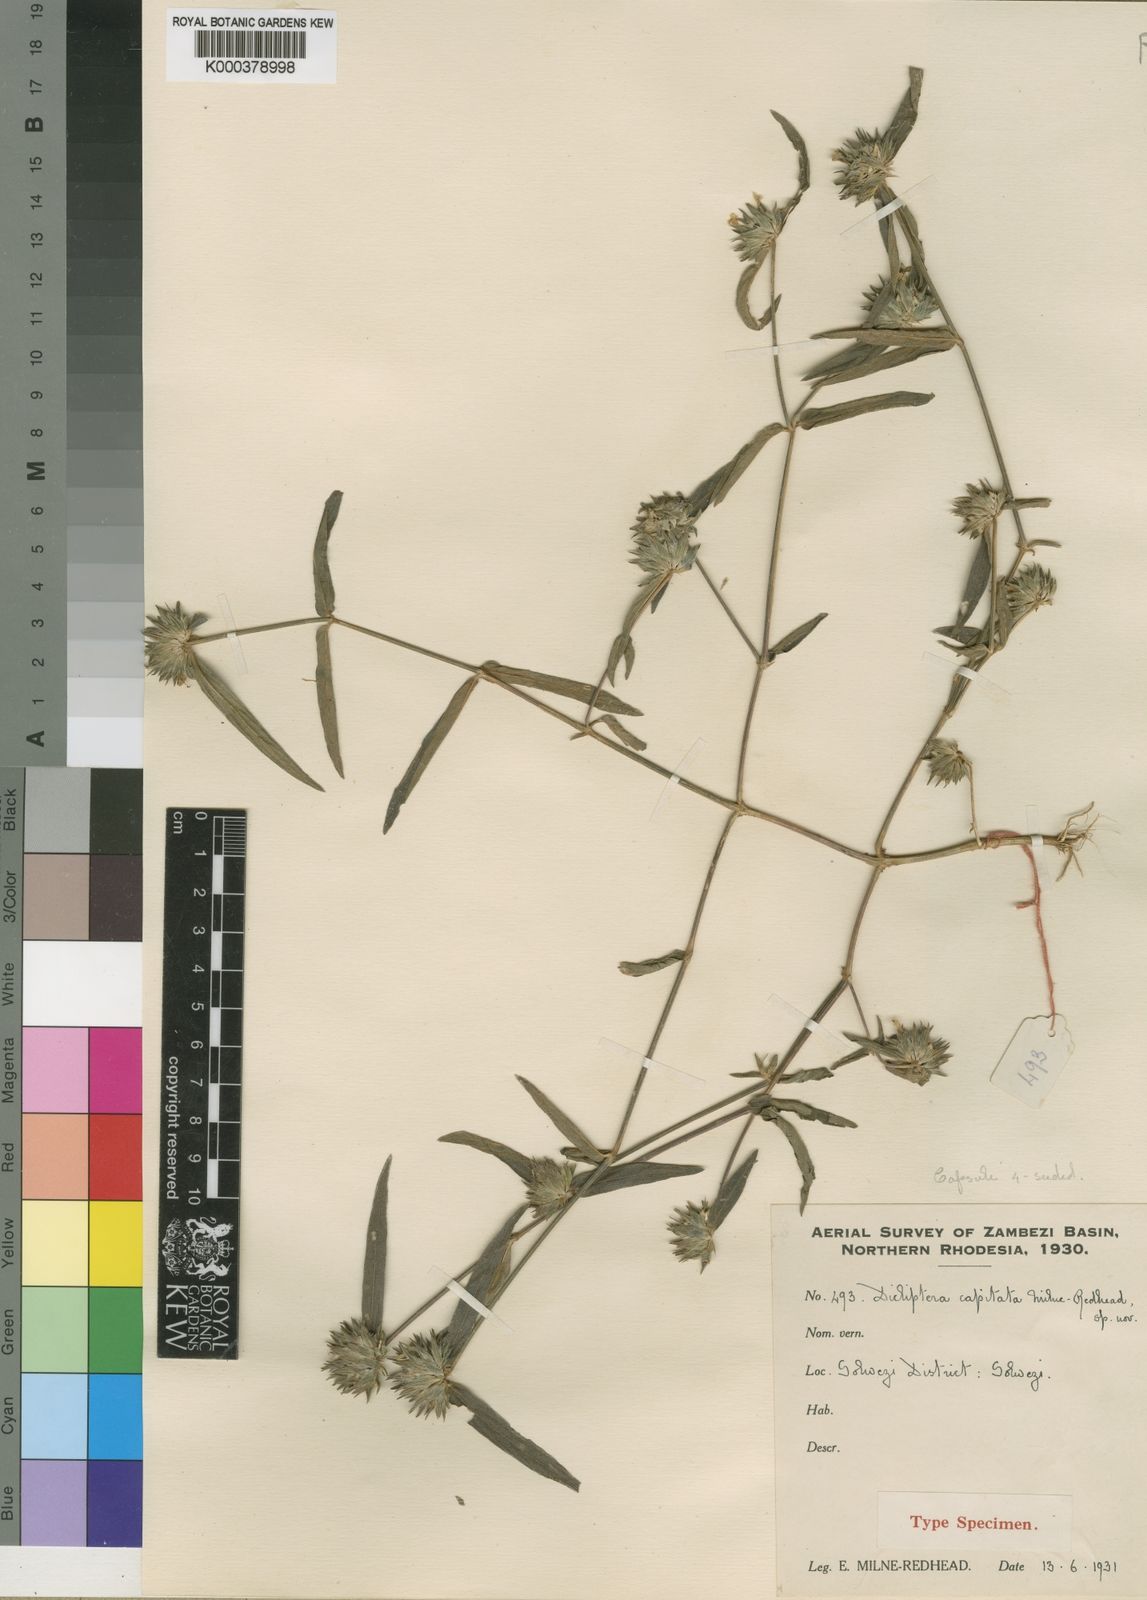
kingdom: Plantae
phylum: Tracheophyta
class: Magnoliopsida
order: Lamiales
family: Acanthaceae
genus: Dicliptera
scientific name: Dicliptera capitata
